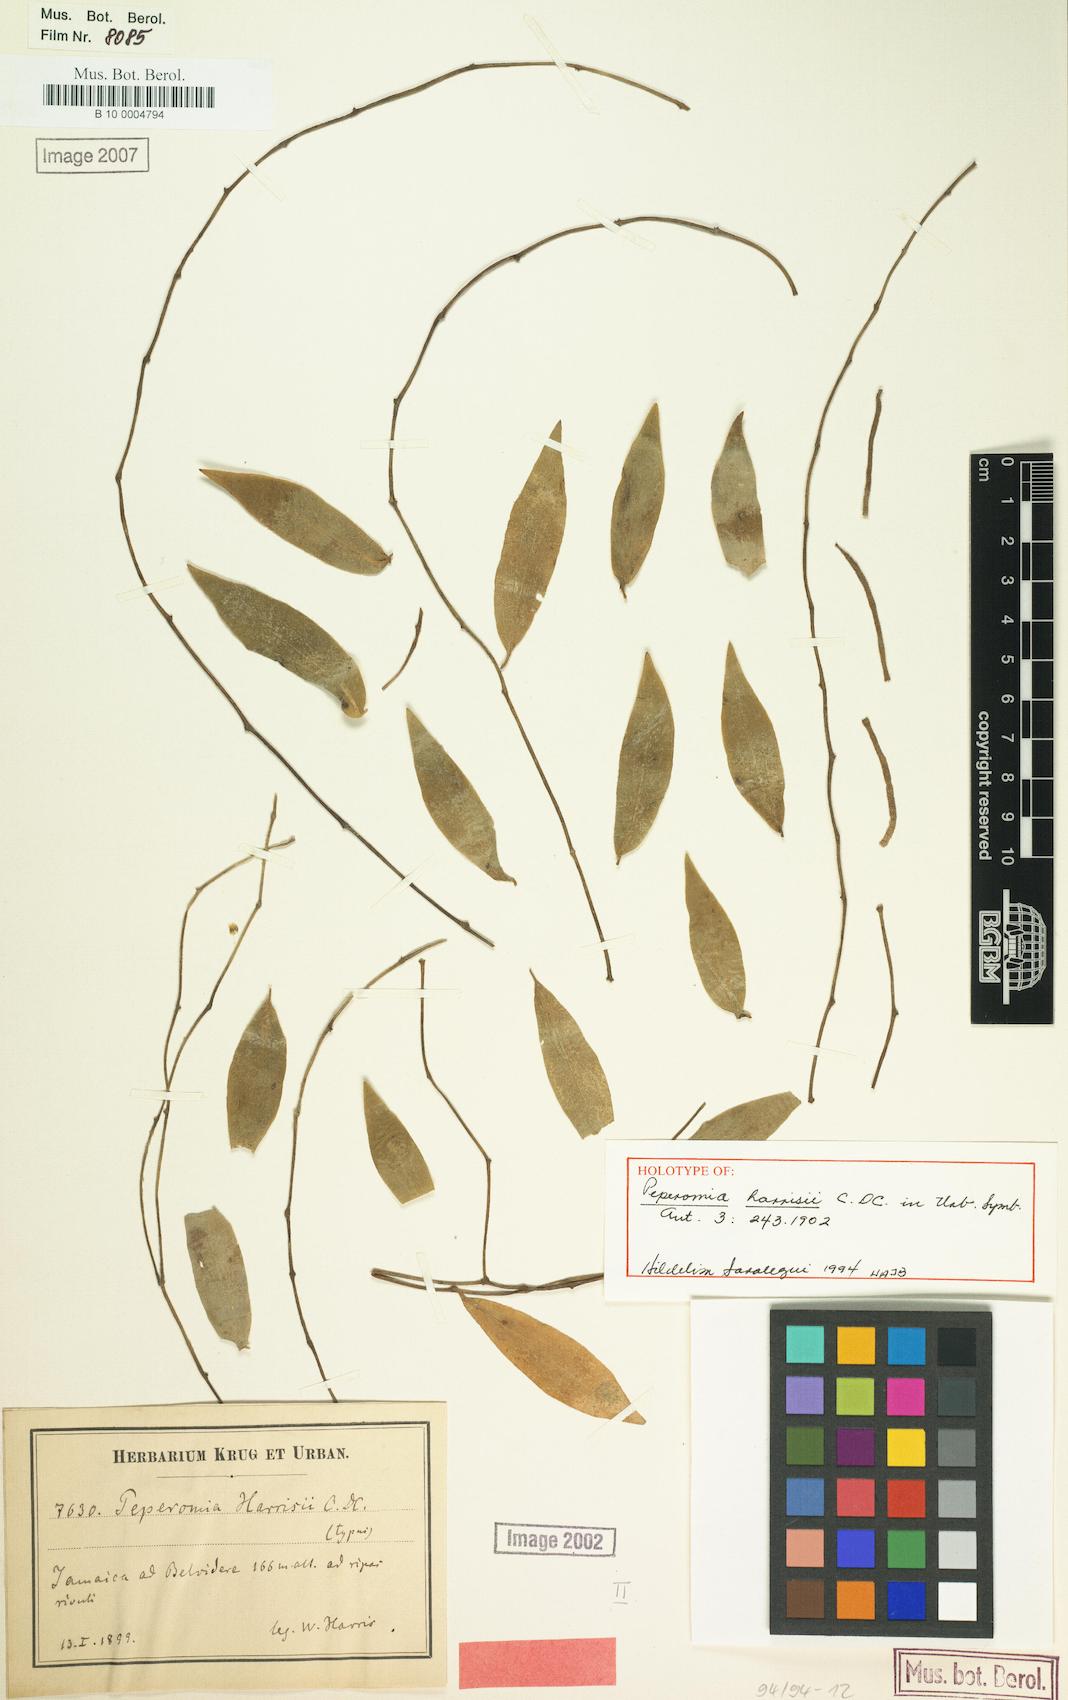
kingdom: Plantae
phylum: Tracheophyta
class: Magnoliopsida
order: Piperales
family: Piperaceae
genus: Peperomia
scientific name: Peperomia harrisii
